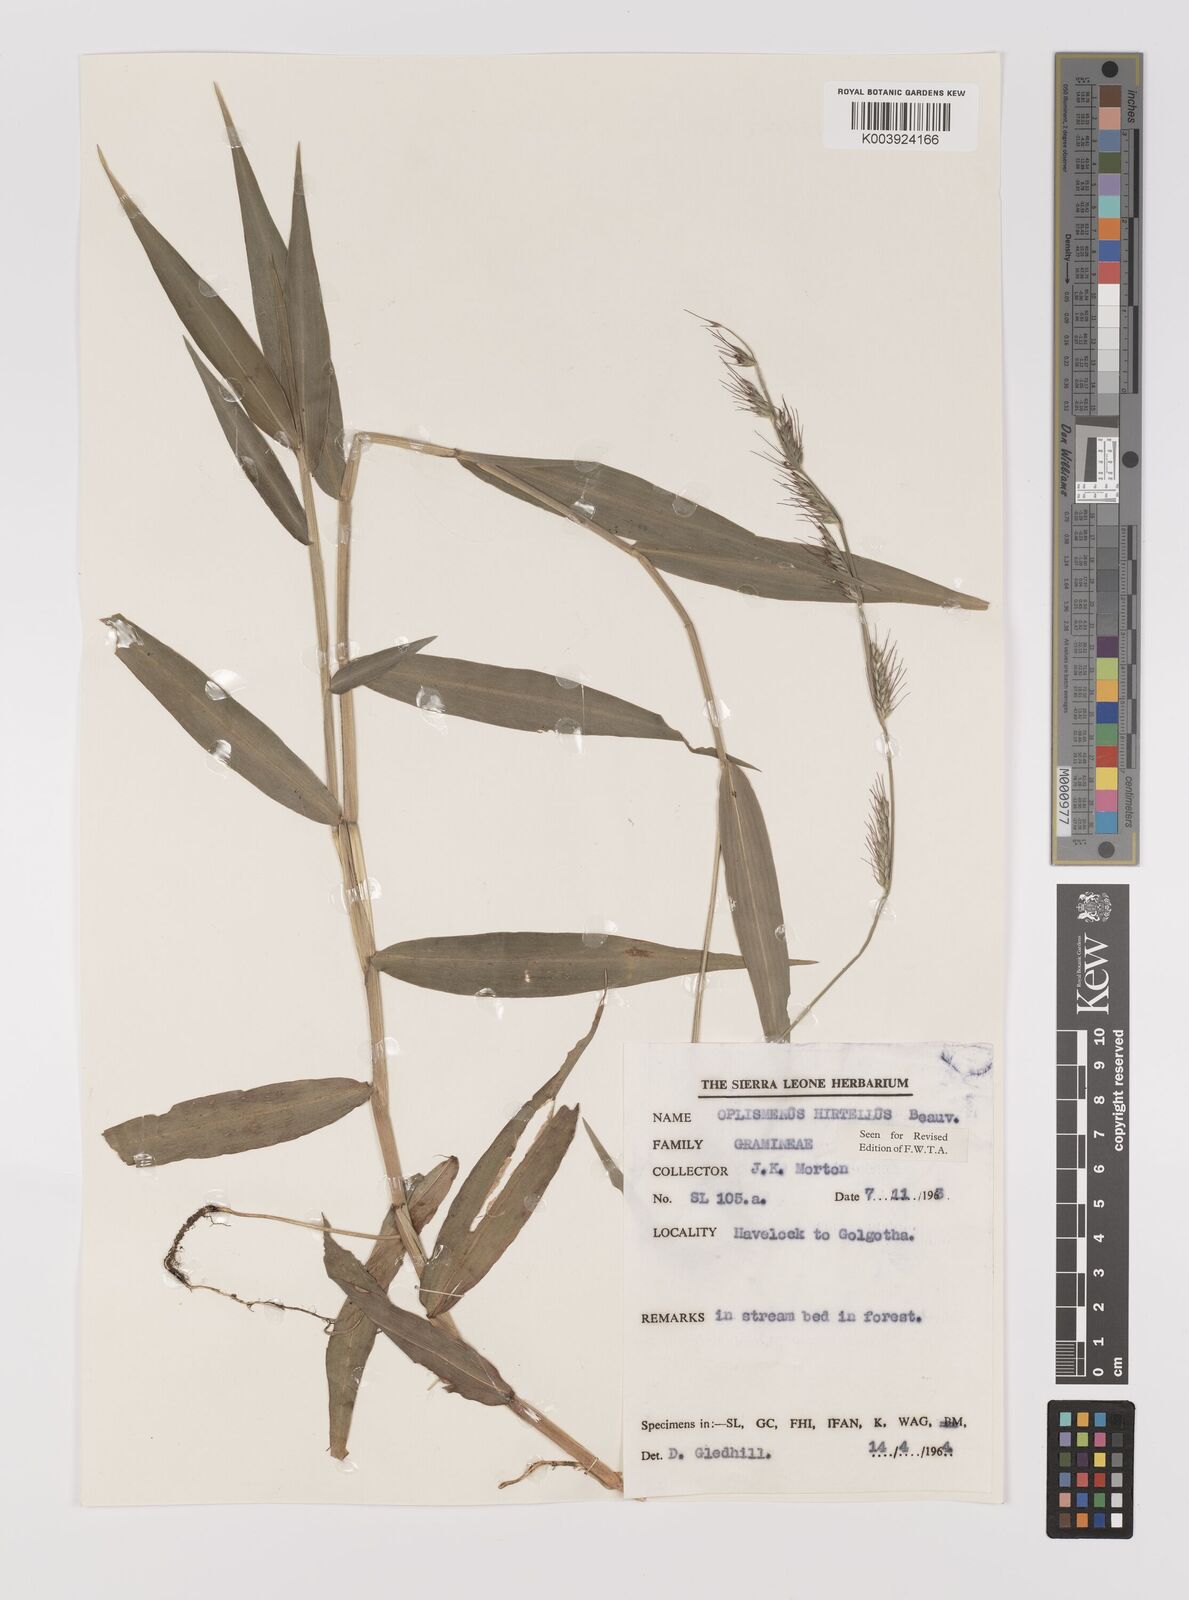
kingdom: Plantae
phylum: Tracheophyta
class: Liliopsida
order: Poales
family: Poaceae
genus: Oplismenus
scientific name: Oplismenus hirtellus
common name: Basketgrass
